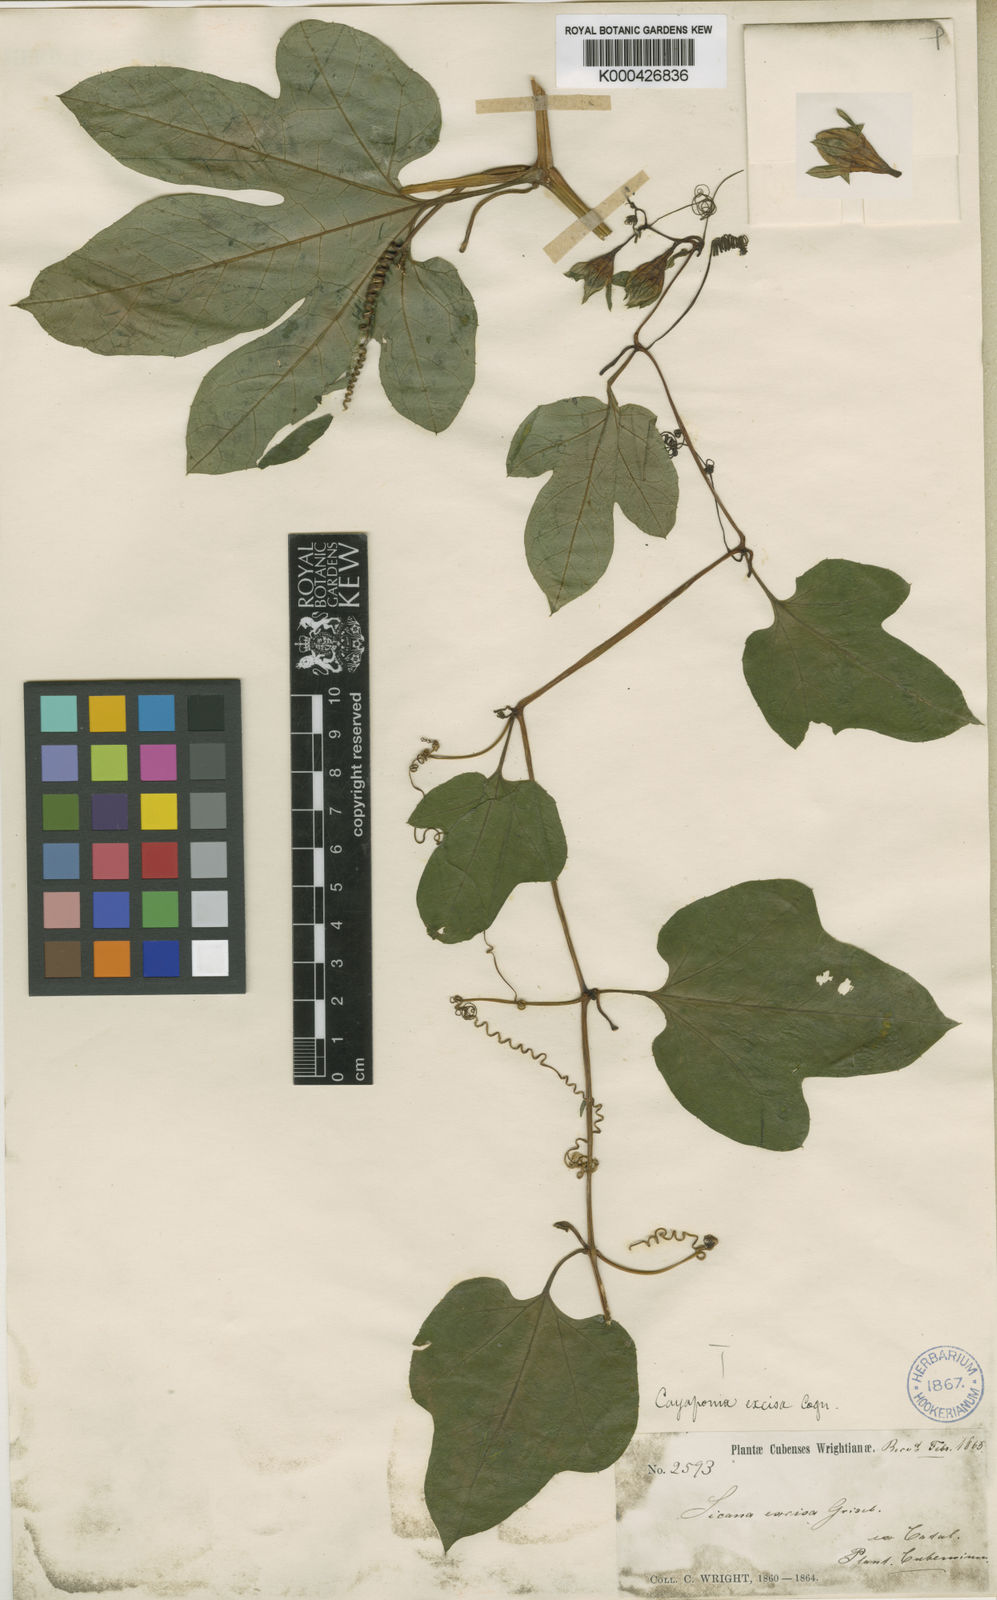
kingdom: Plantae
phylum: Tracheophyta
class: Magnoliopsida
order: Cucurbitales
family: Cucurbitaceae
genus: Cionosicys
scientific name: Cionosicys excisus
